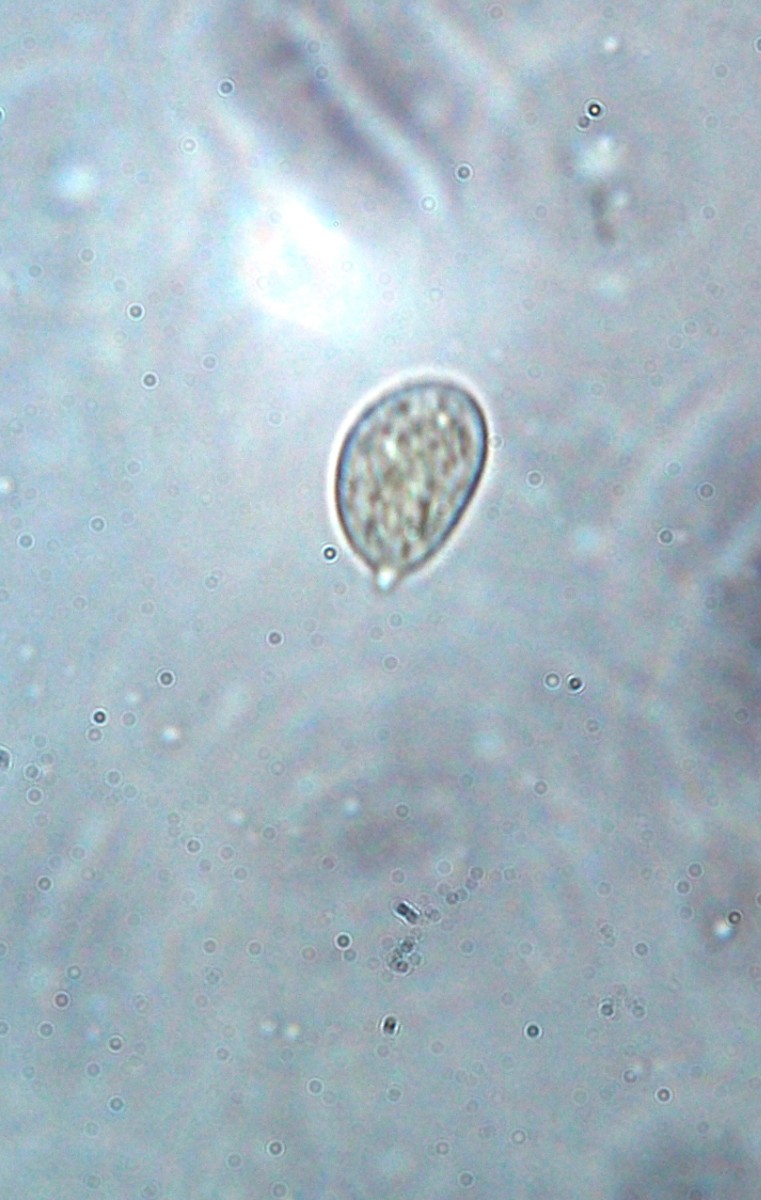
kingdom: Fungi
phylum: Basidiomycota
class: Agaricomycetes
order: Agaricales
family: Niaceae
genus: Lachnella
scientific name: Lachnella alboviolascens
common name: grå frynserede
